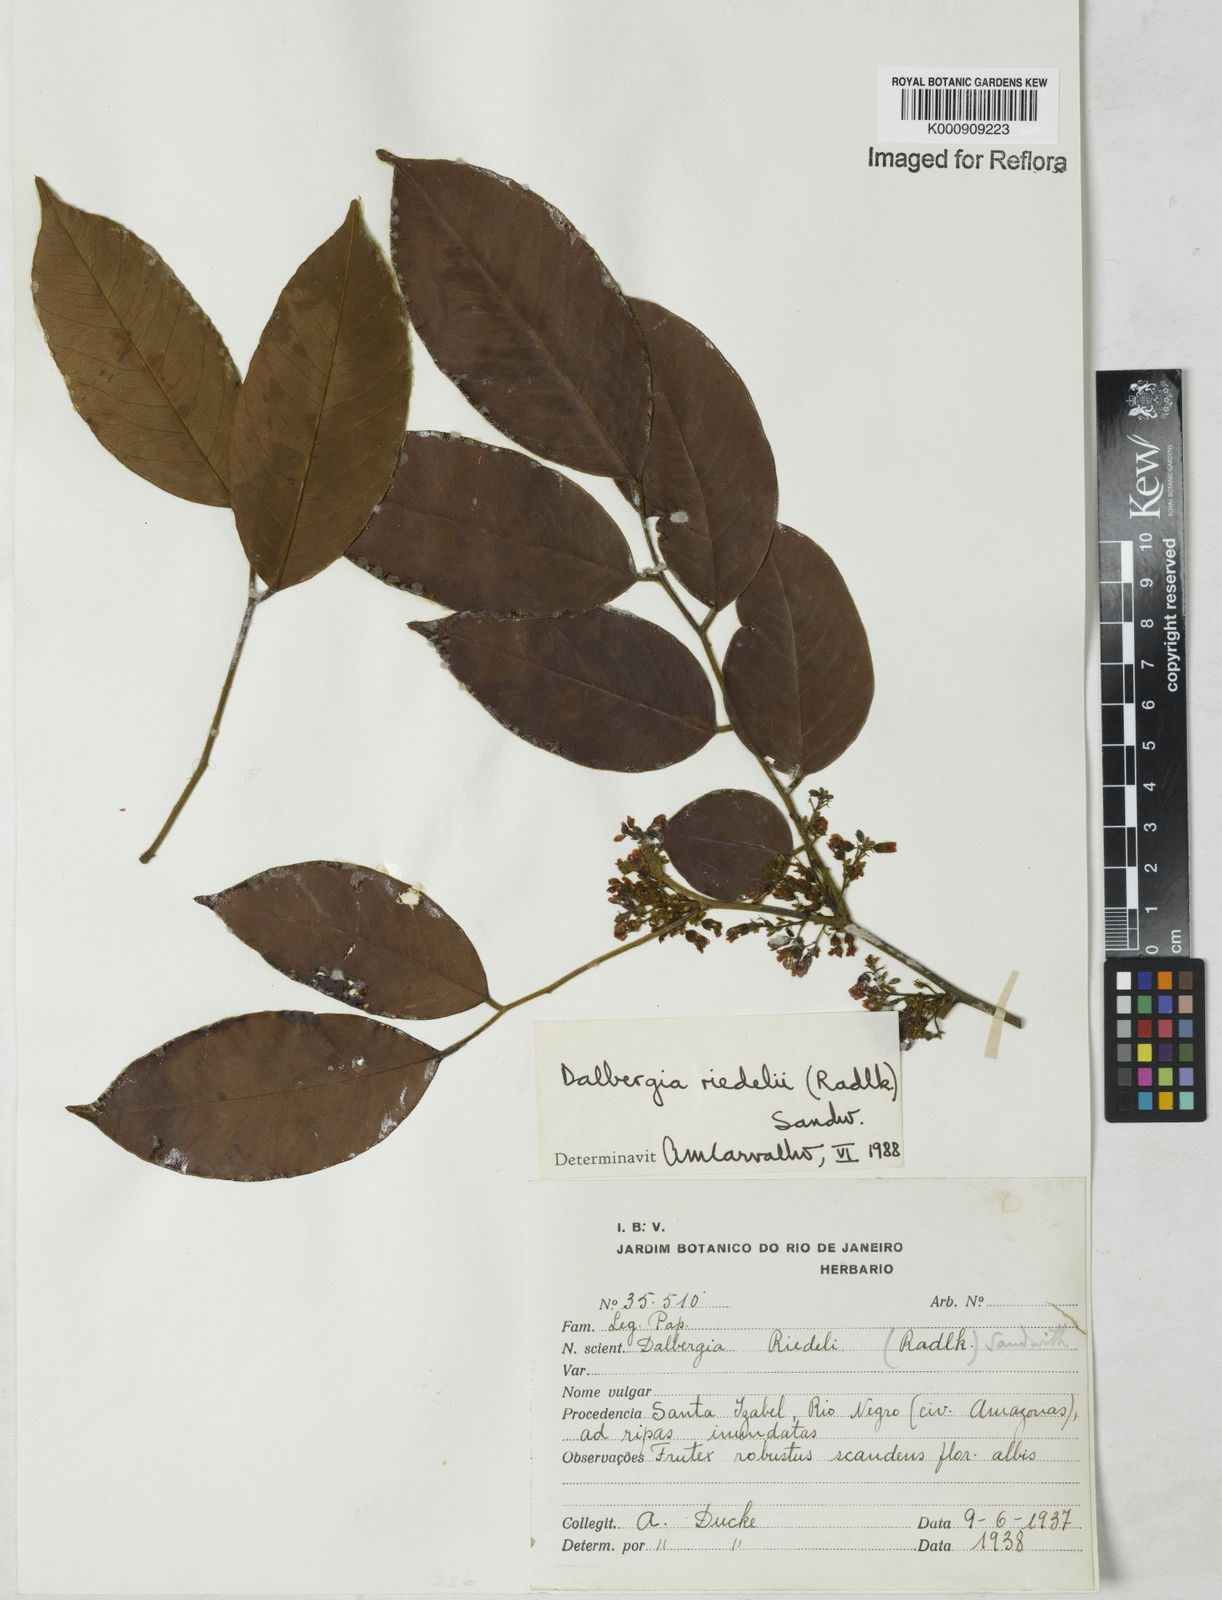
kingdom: Plantae
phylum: Tracheophyta
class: Magnoliopsida
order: Fabales
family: Fabaceae
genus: Dalbergia
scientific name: Dalbergia riedelii
